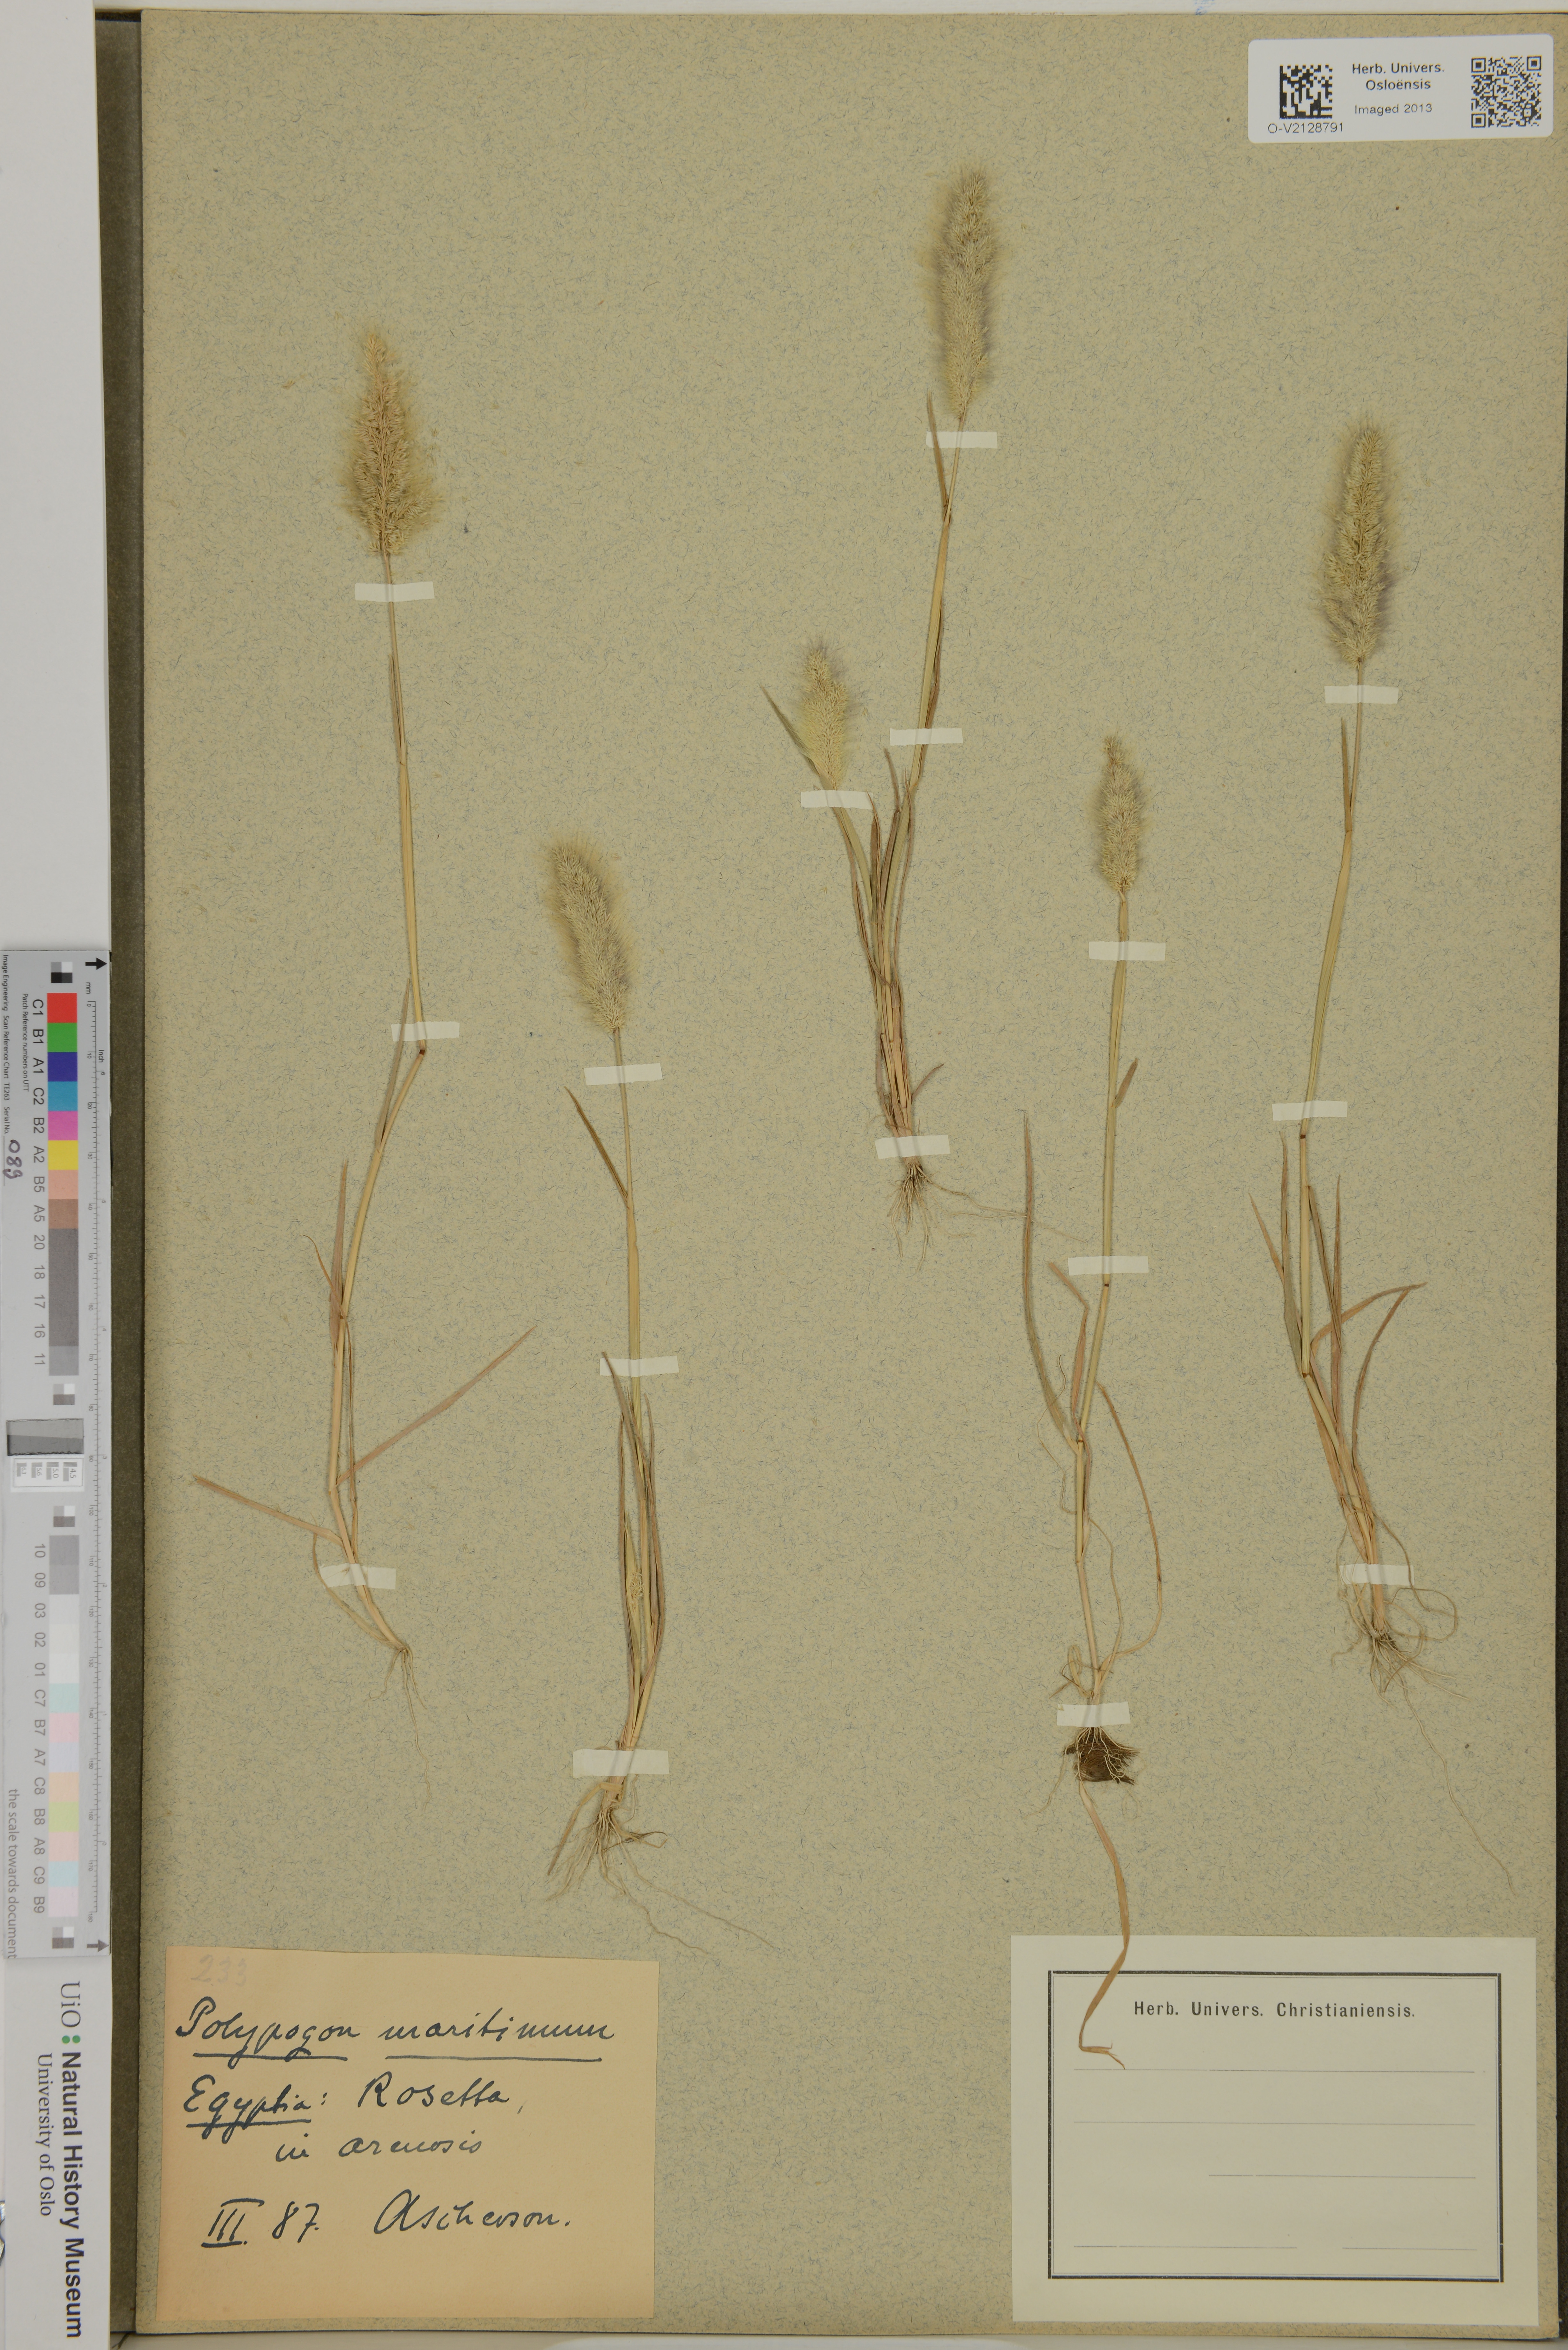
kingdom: Plantae
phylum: Tracheophyta
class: Liliopsida
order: Poales
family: Poaceae
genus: Polypogon
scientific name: Polypogon
